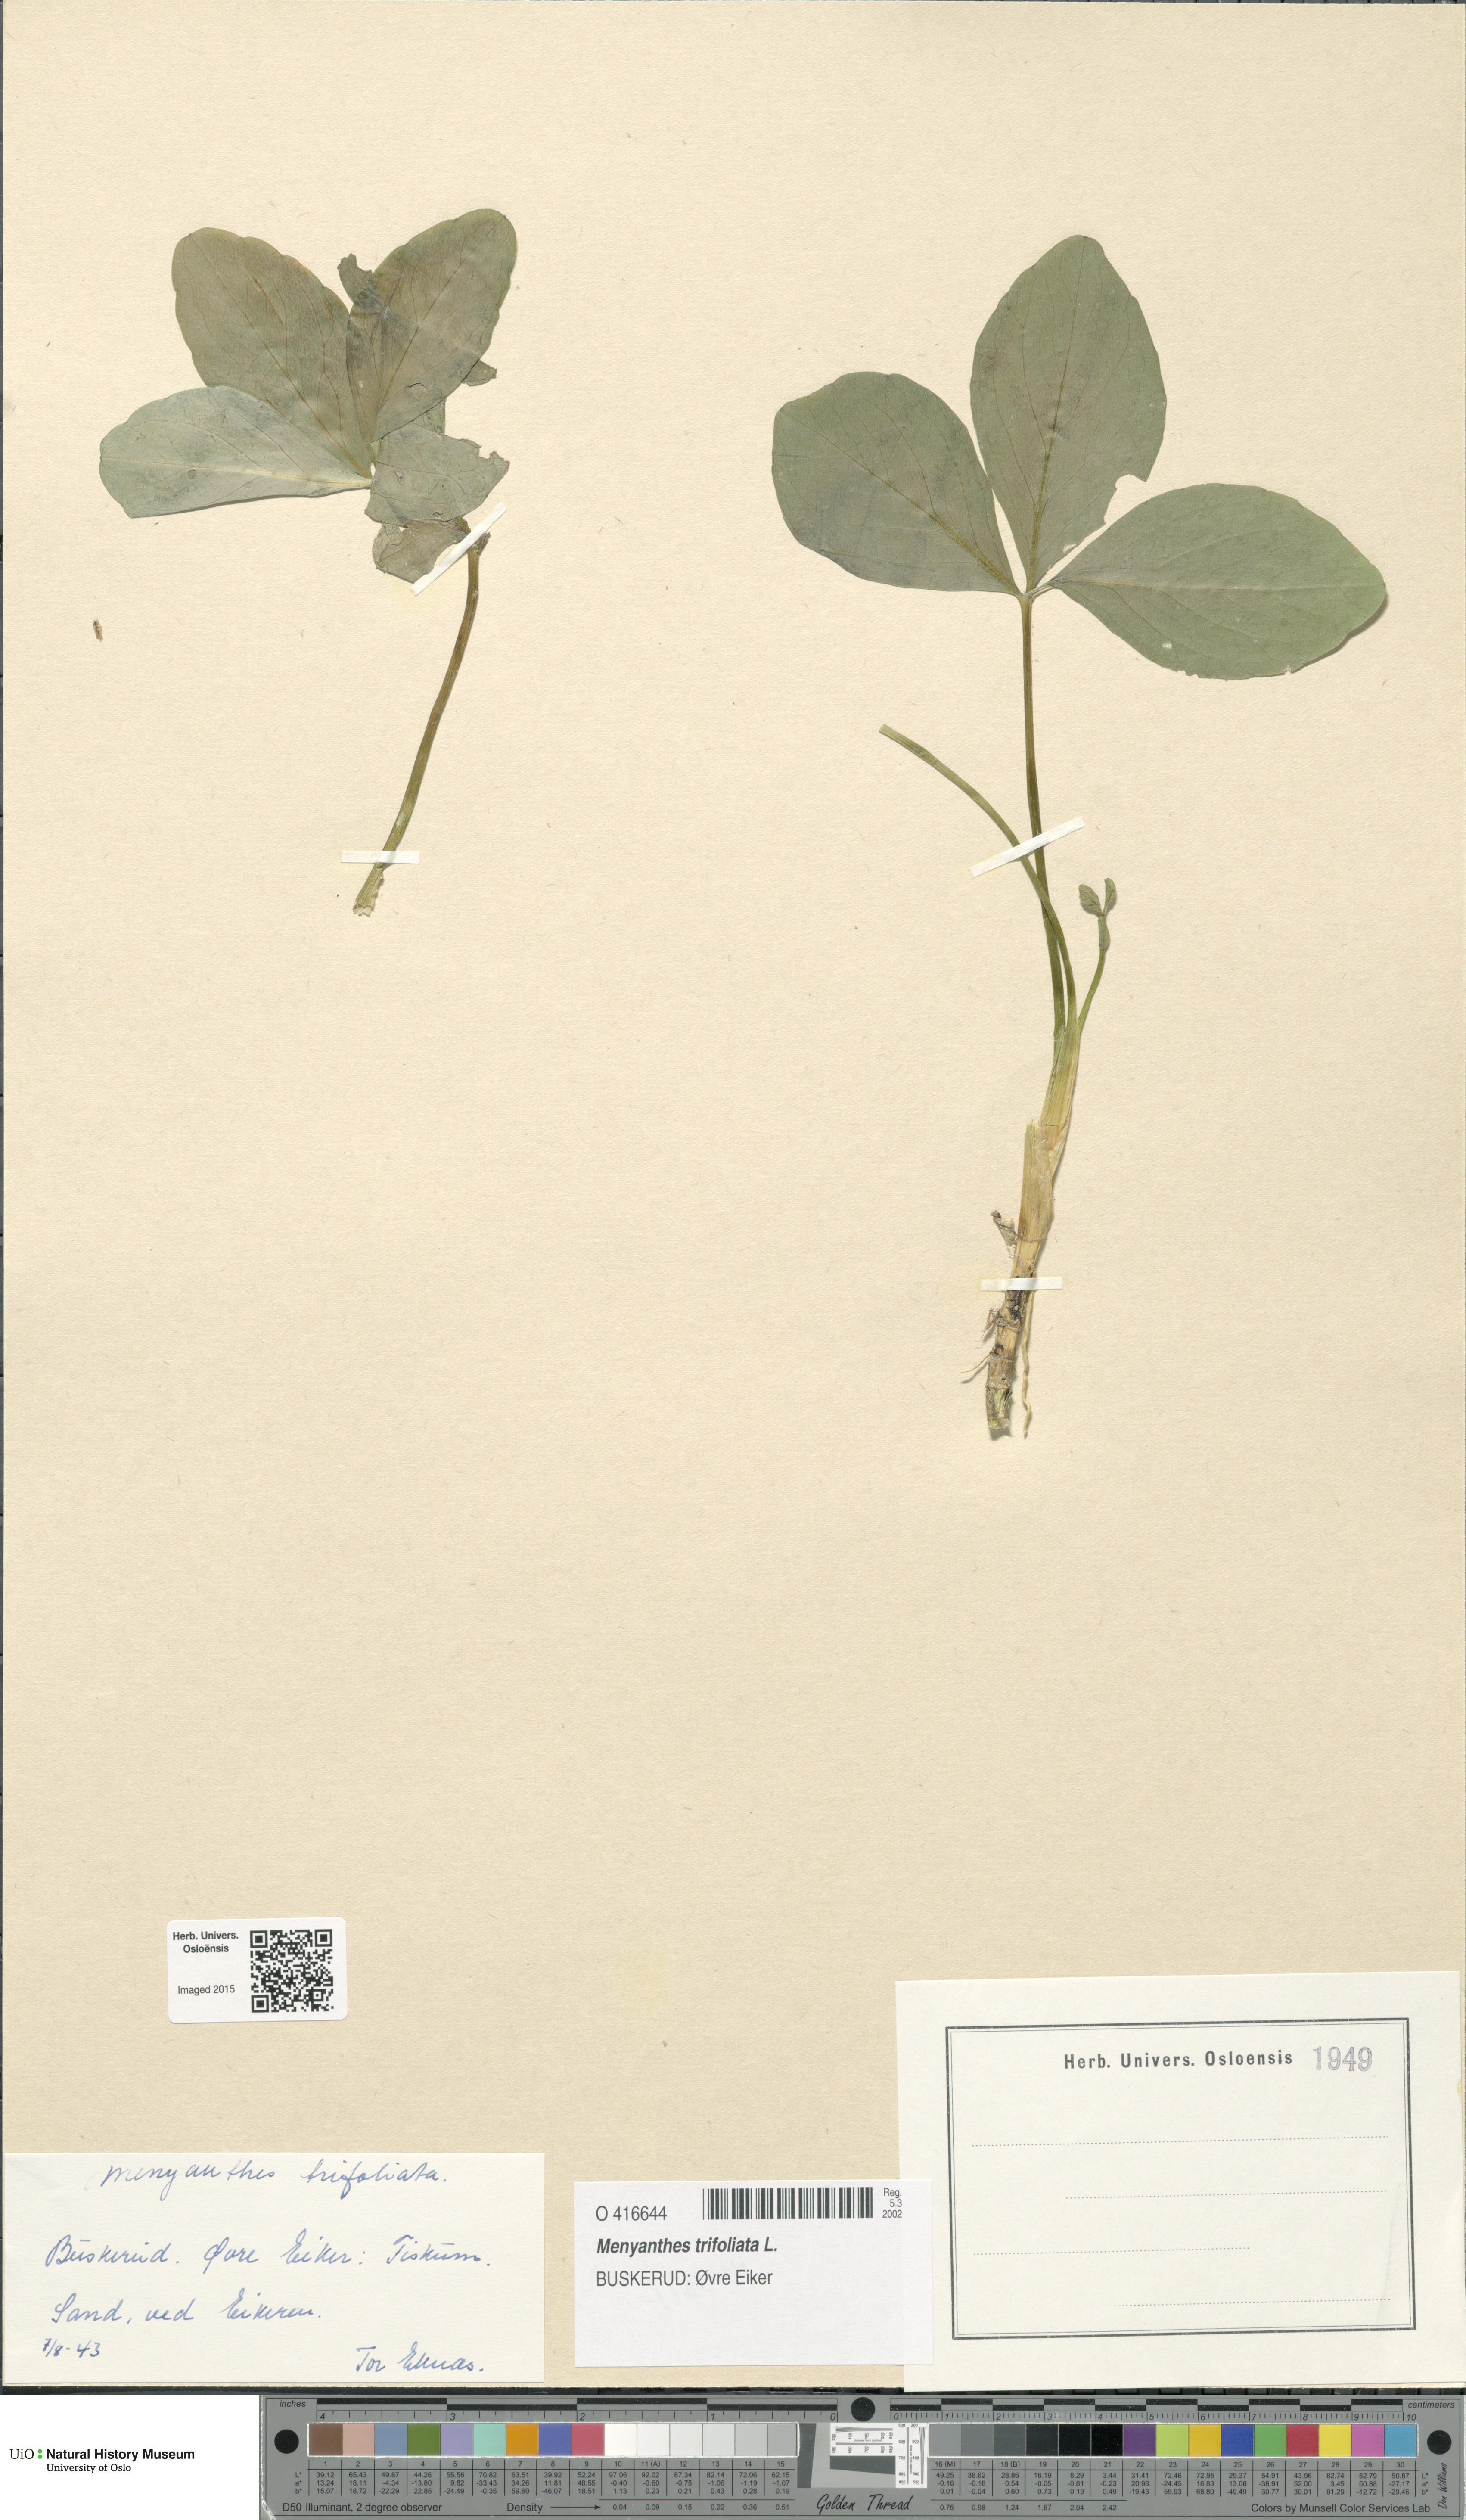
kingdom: Plantae
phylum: Tracheophyta
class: Magnoliopsida
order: Asterales
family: Menyanthaceae
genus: Menyanthes
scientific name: Menyanthes trifoliata
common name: Bogbean
